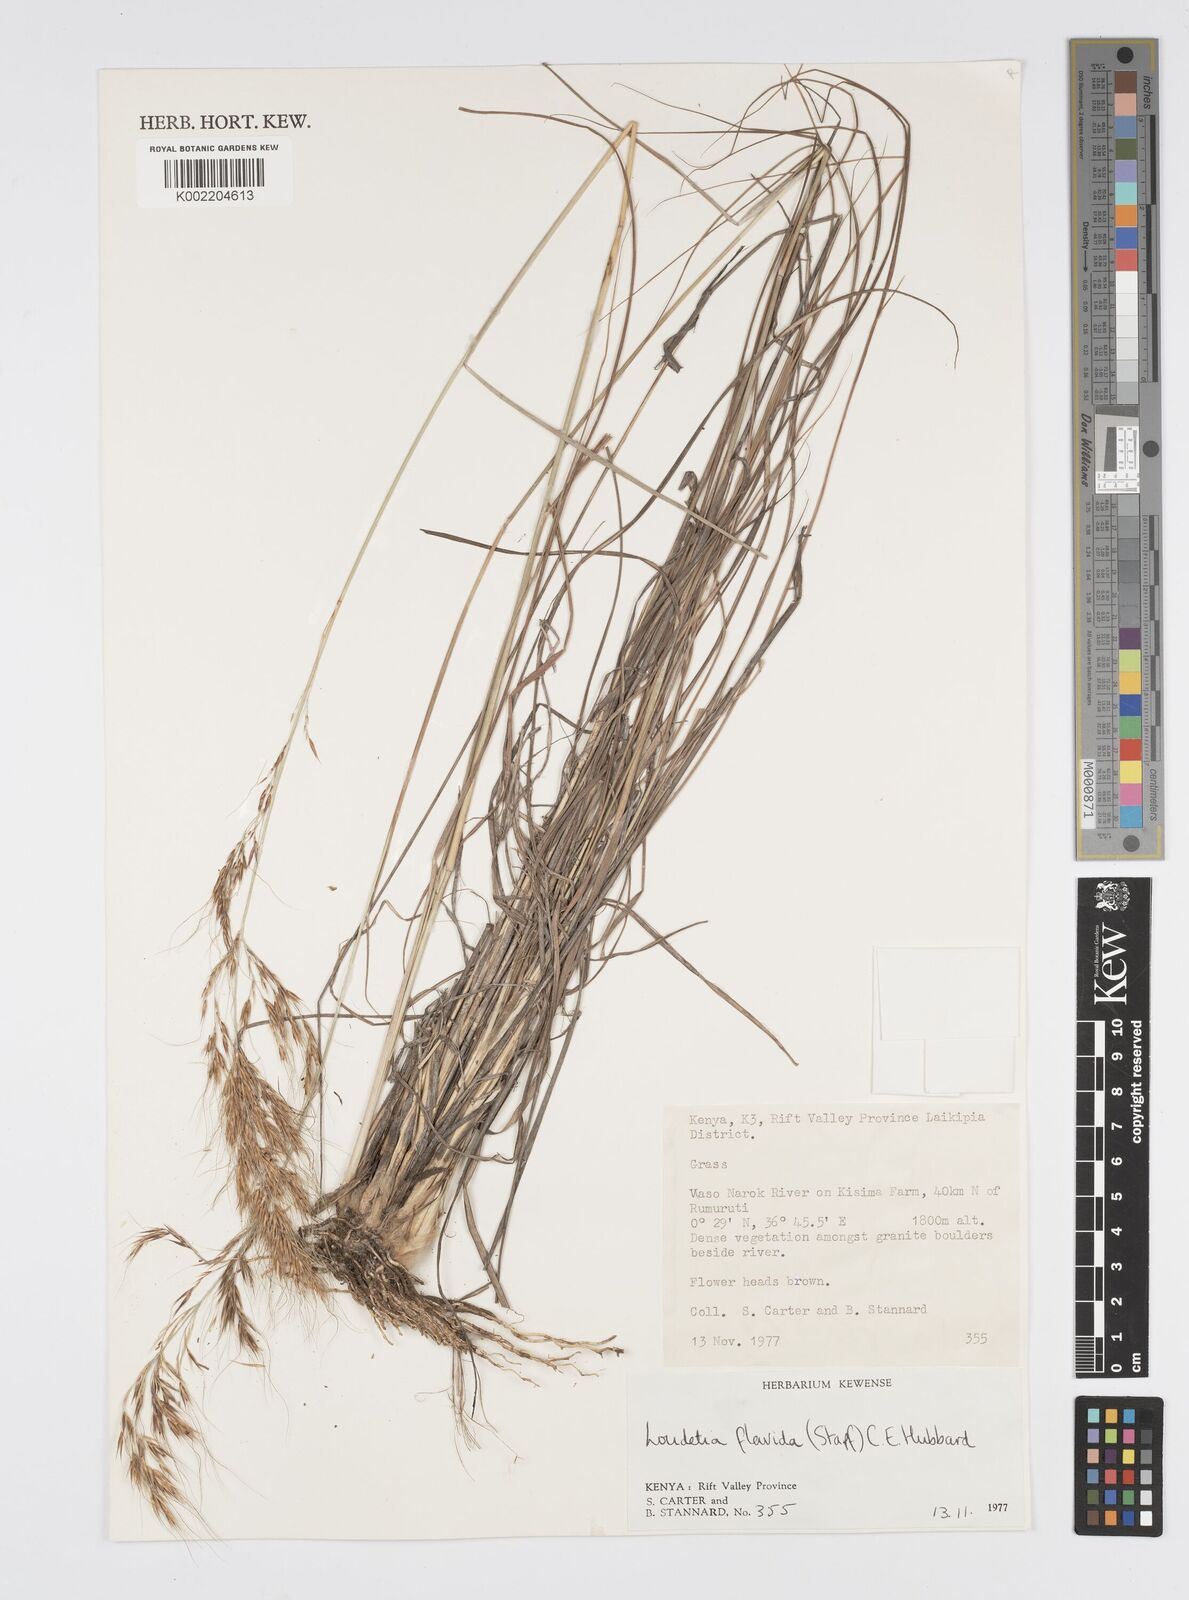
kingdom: Plantae
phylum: Tracheophyta
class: Liliopsida
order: Poales
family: Poaceae
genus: Loudetia
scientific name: Loudetia flavida
